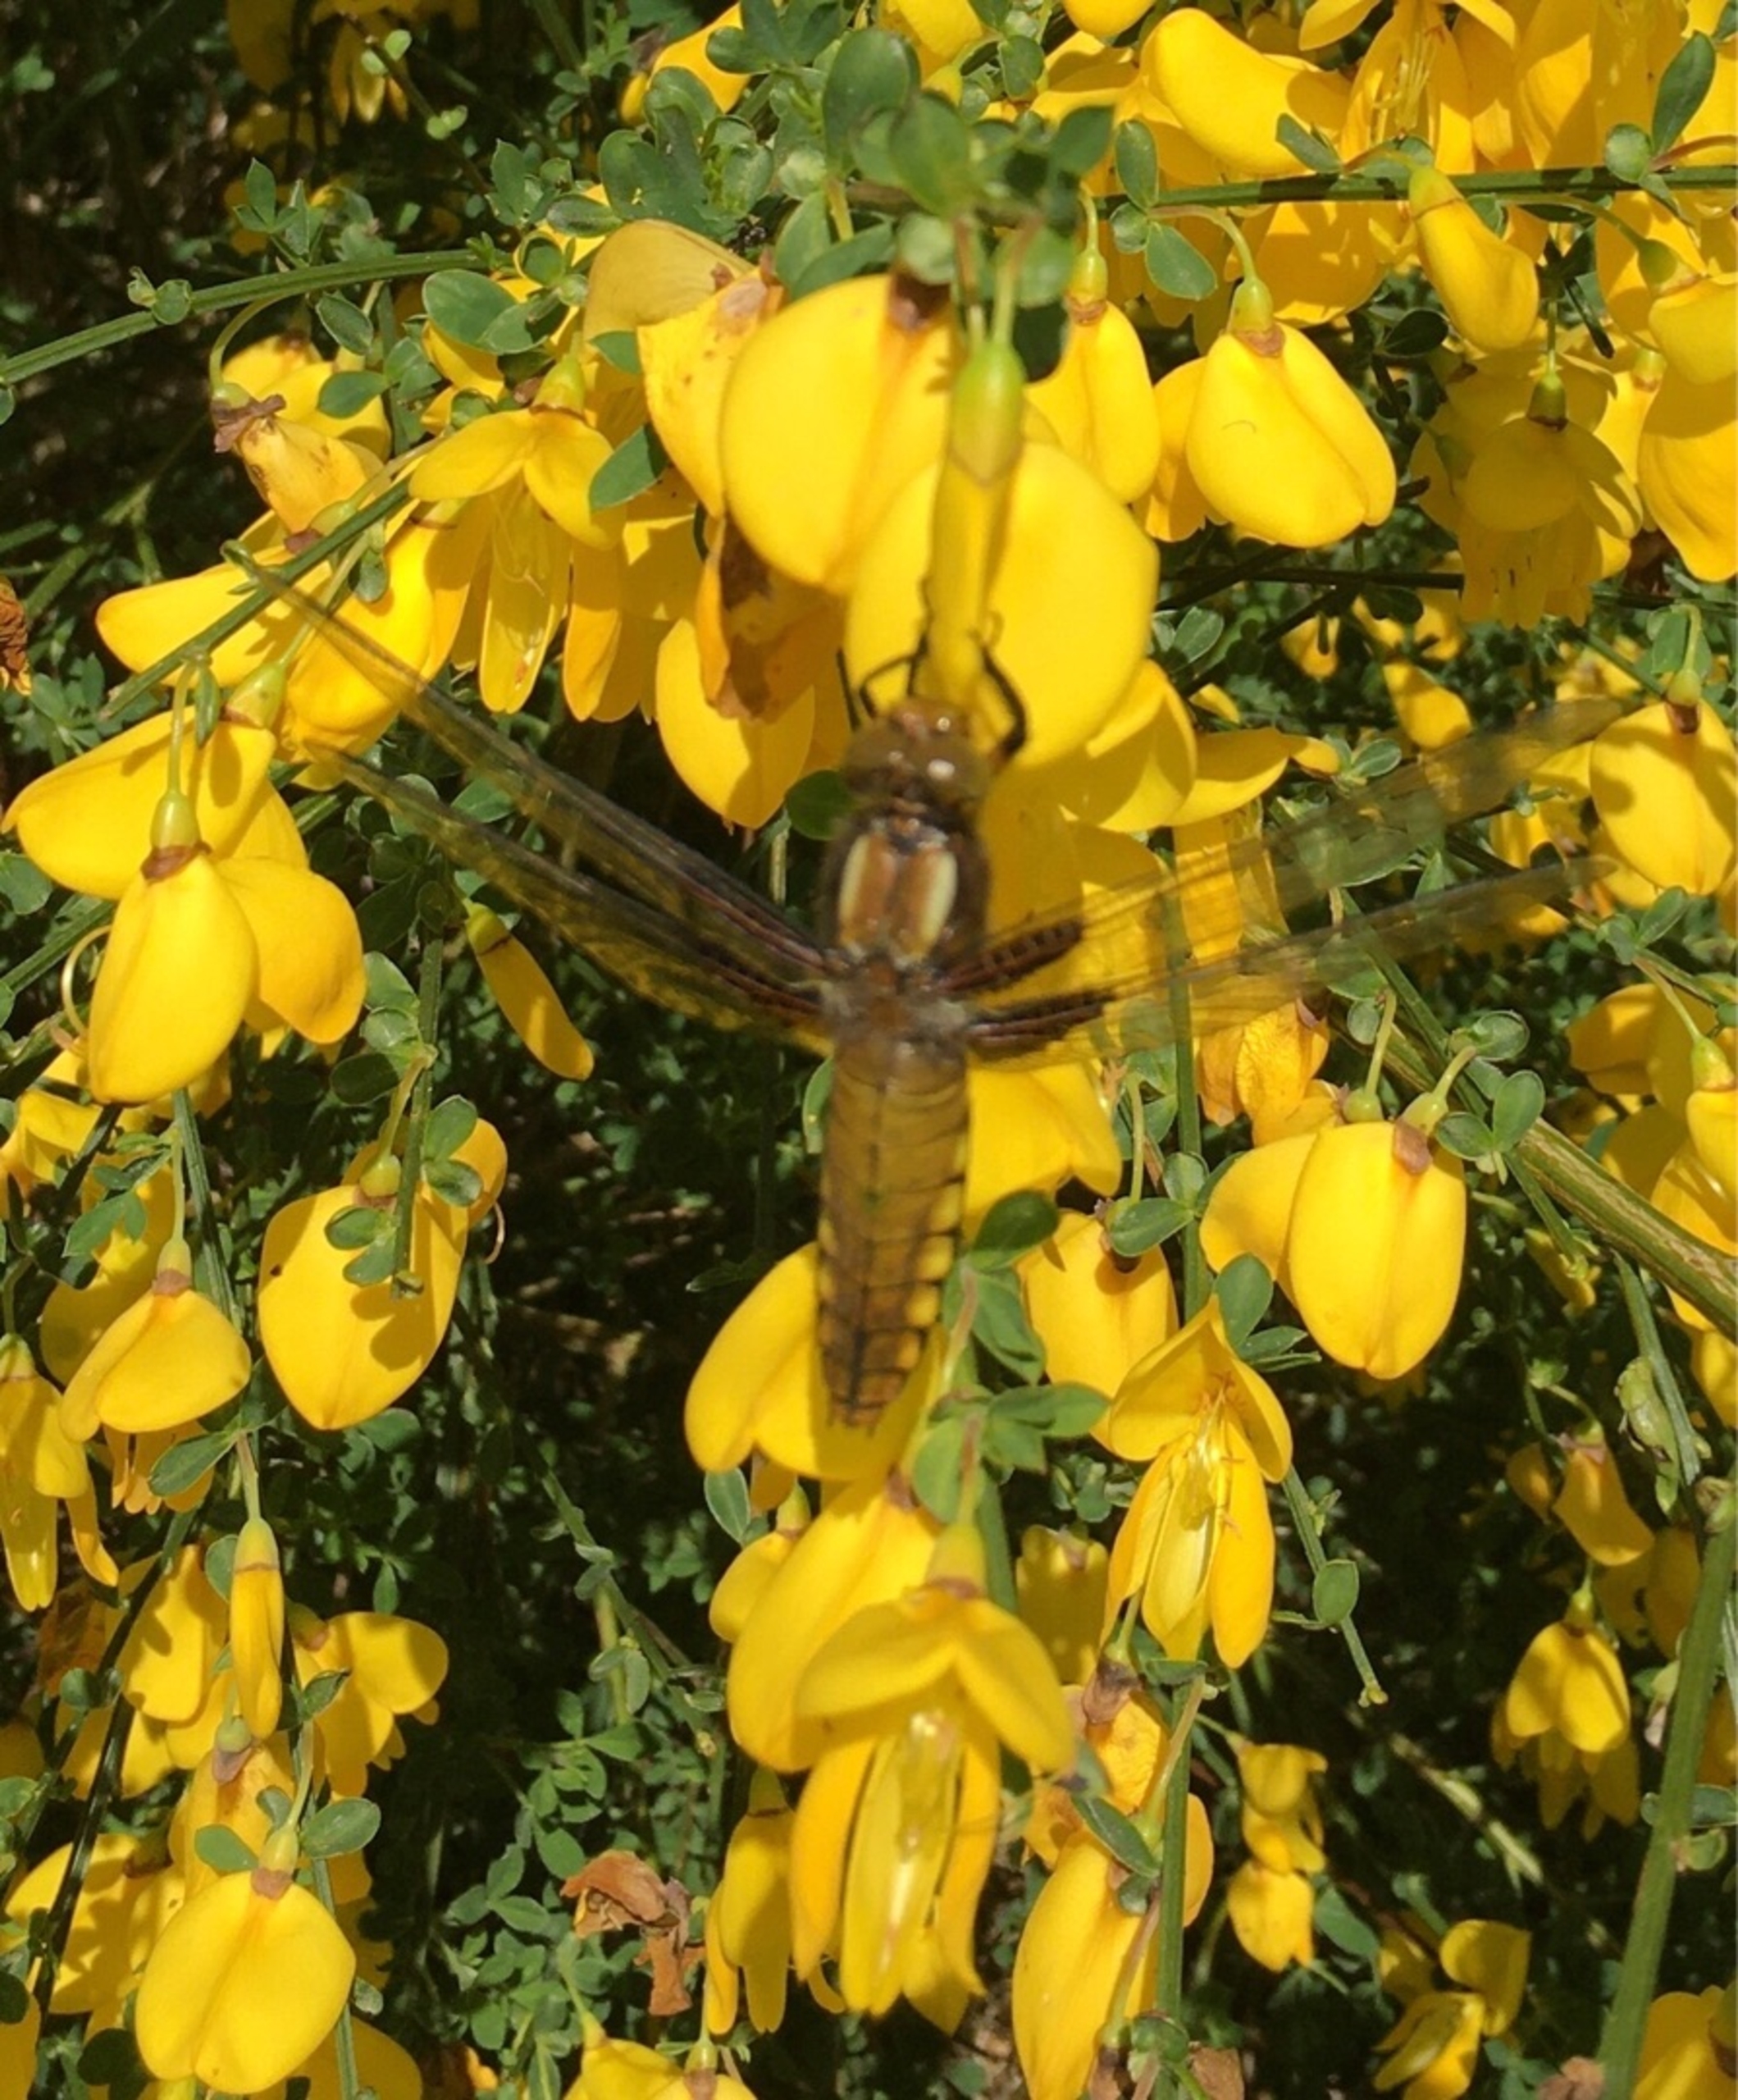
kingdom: Animalia
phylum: Arthropoda
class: Insecta
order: Odonata
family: Libellulidae
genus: Libellula
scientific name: Libellula depressa
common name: Blå libel
